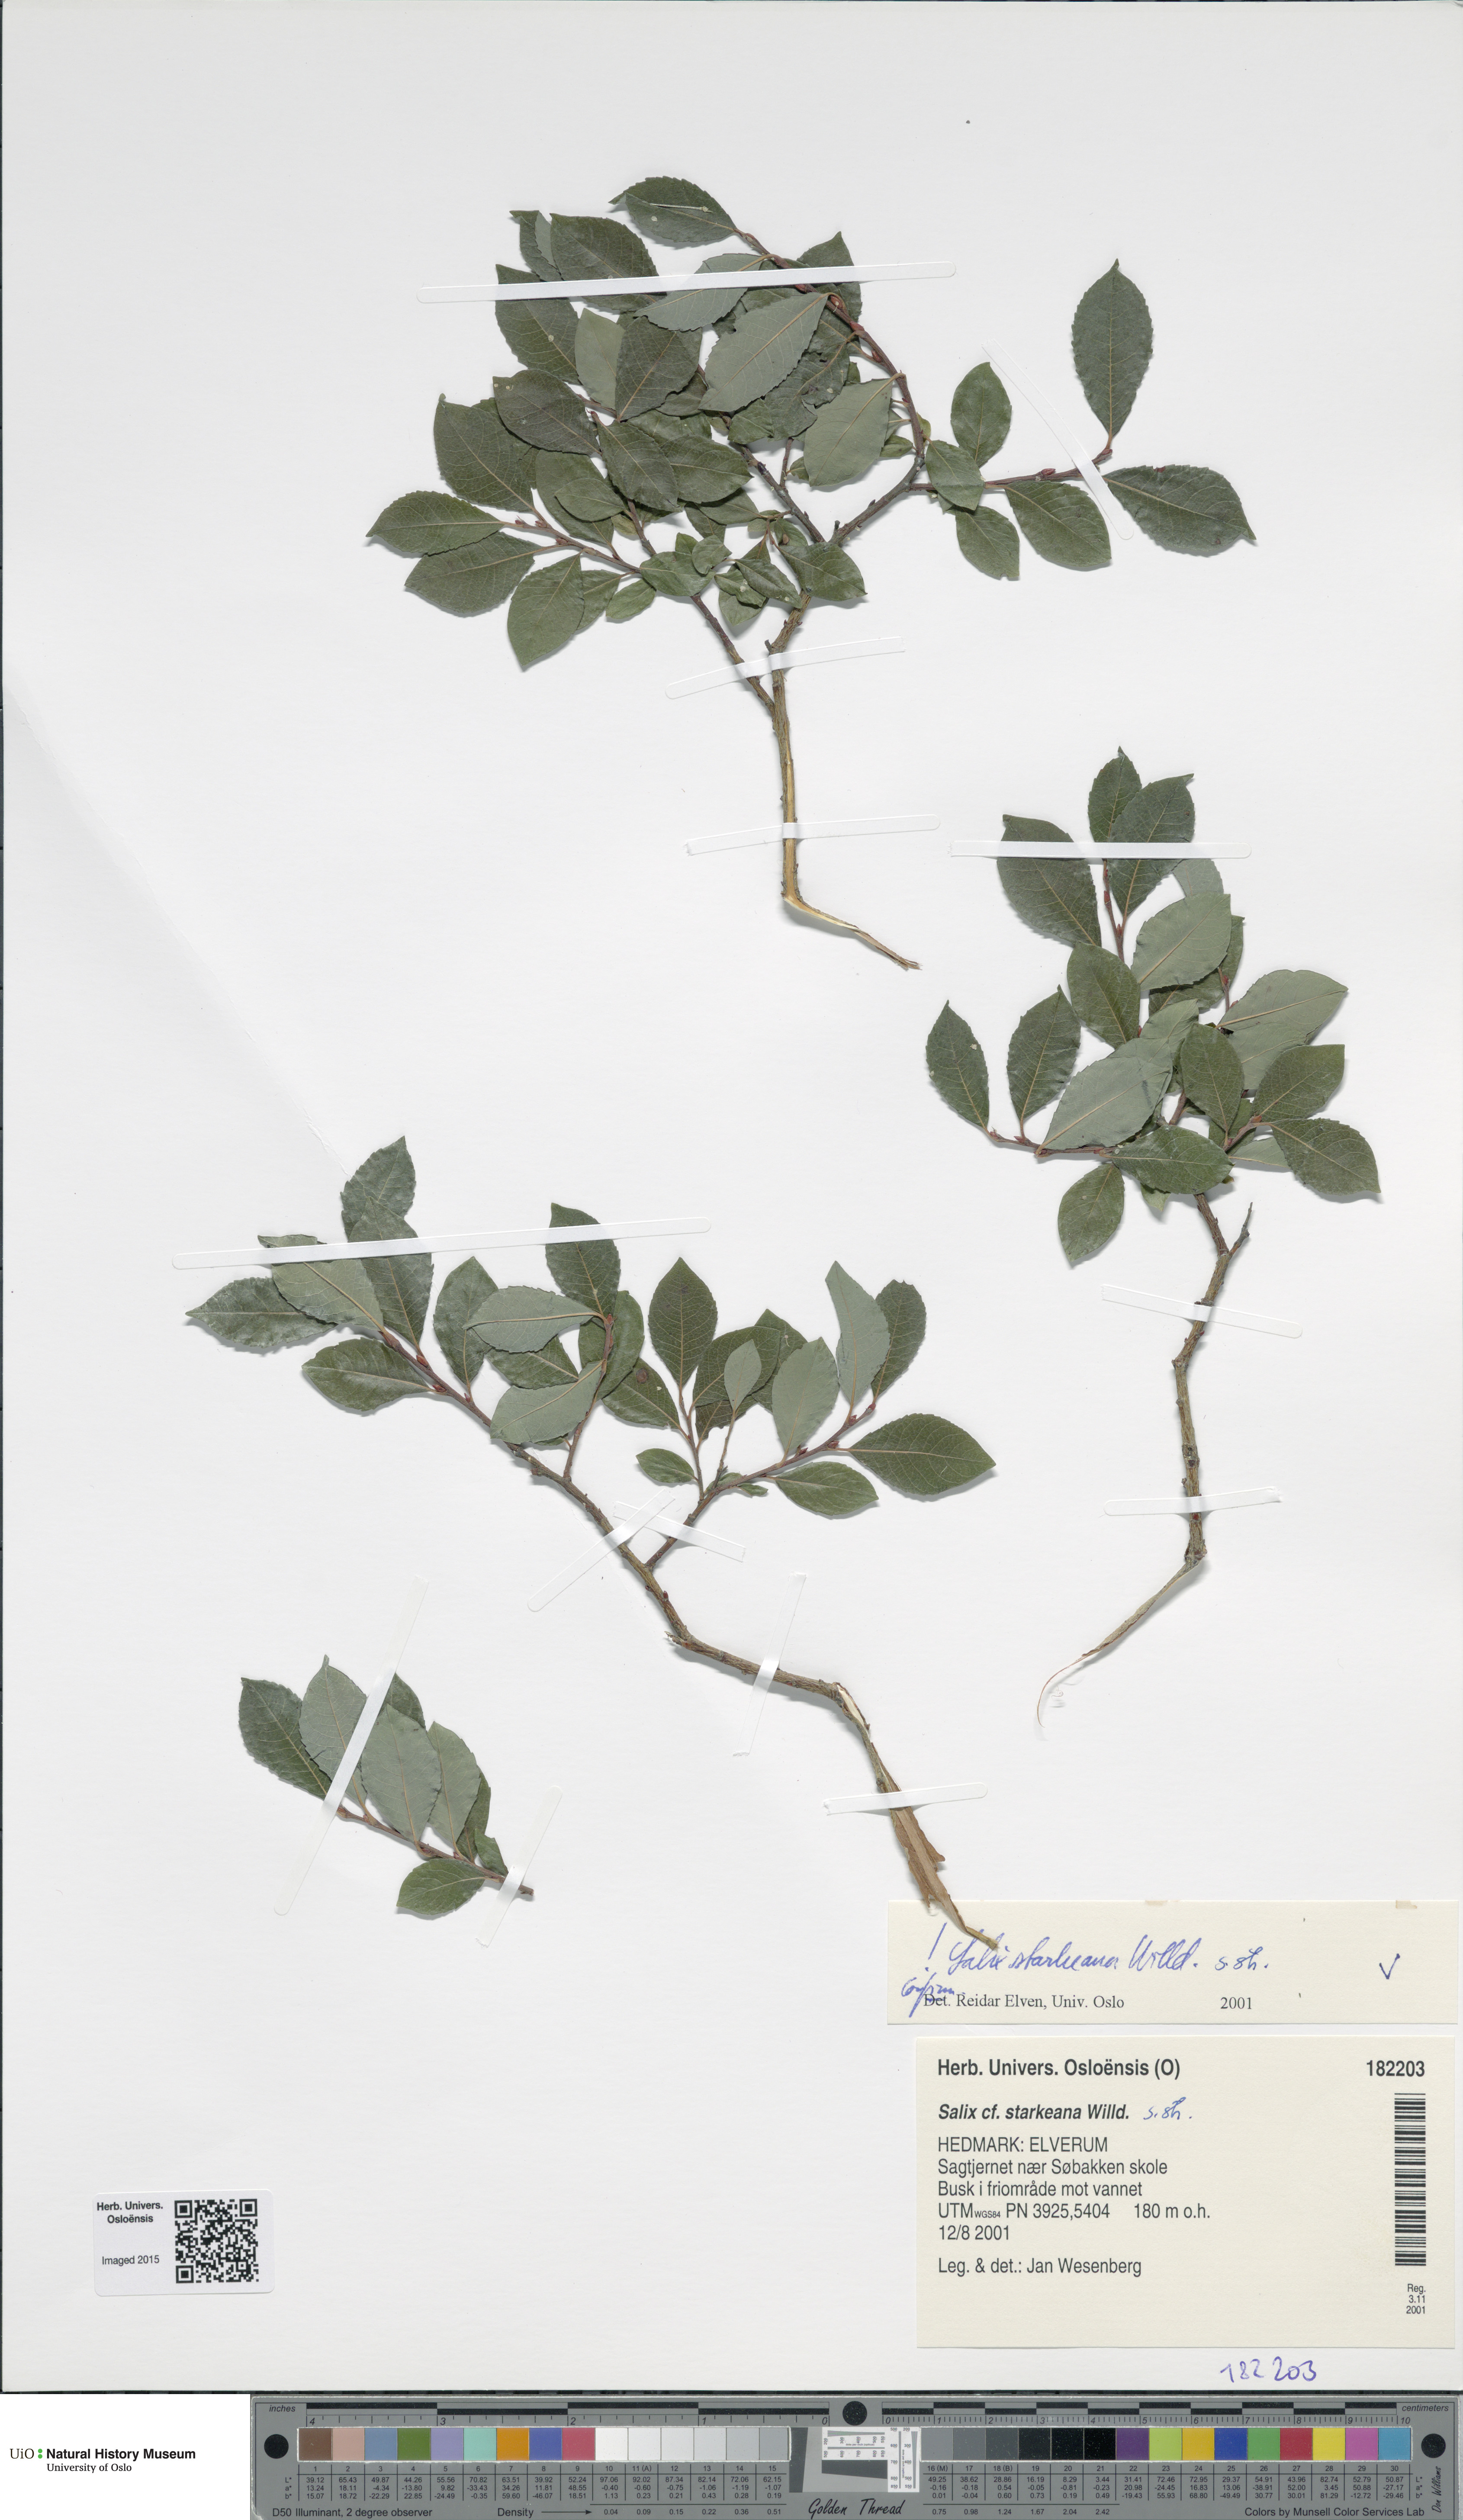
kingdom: Plantae
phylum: Tracheophyta
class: Magnoliopsida
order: Malpighiales
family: Salicaceae
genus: Salix
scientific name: Salix starkeana
